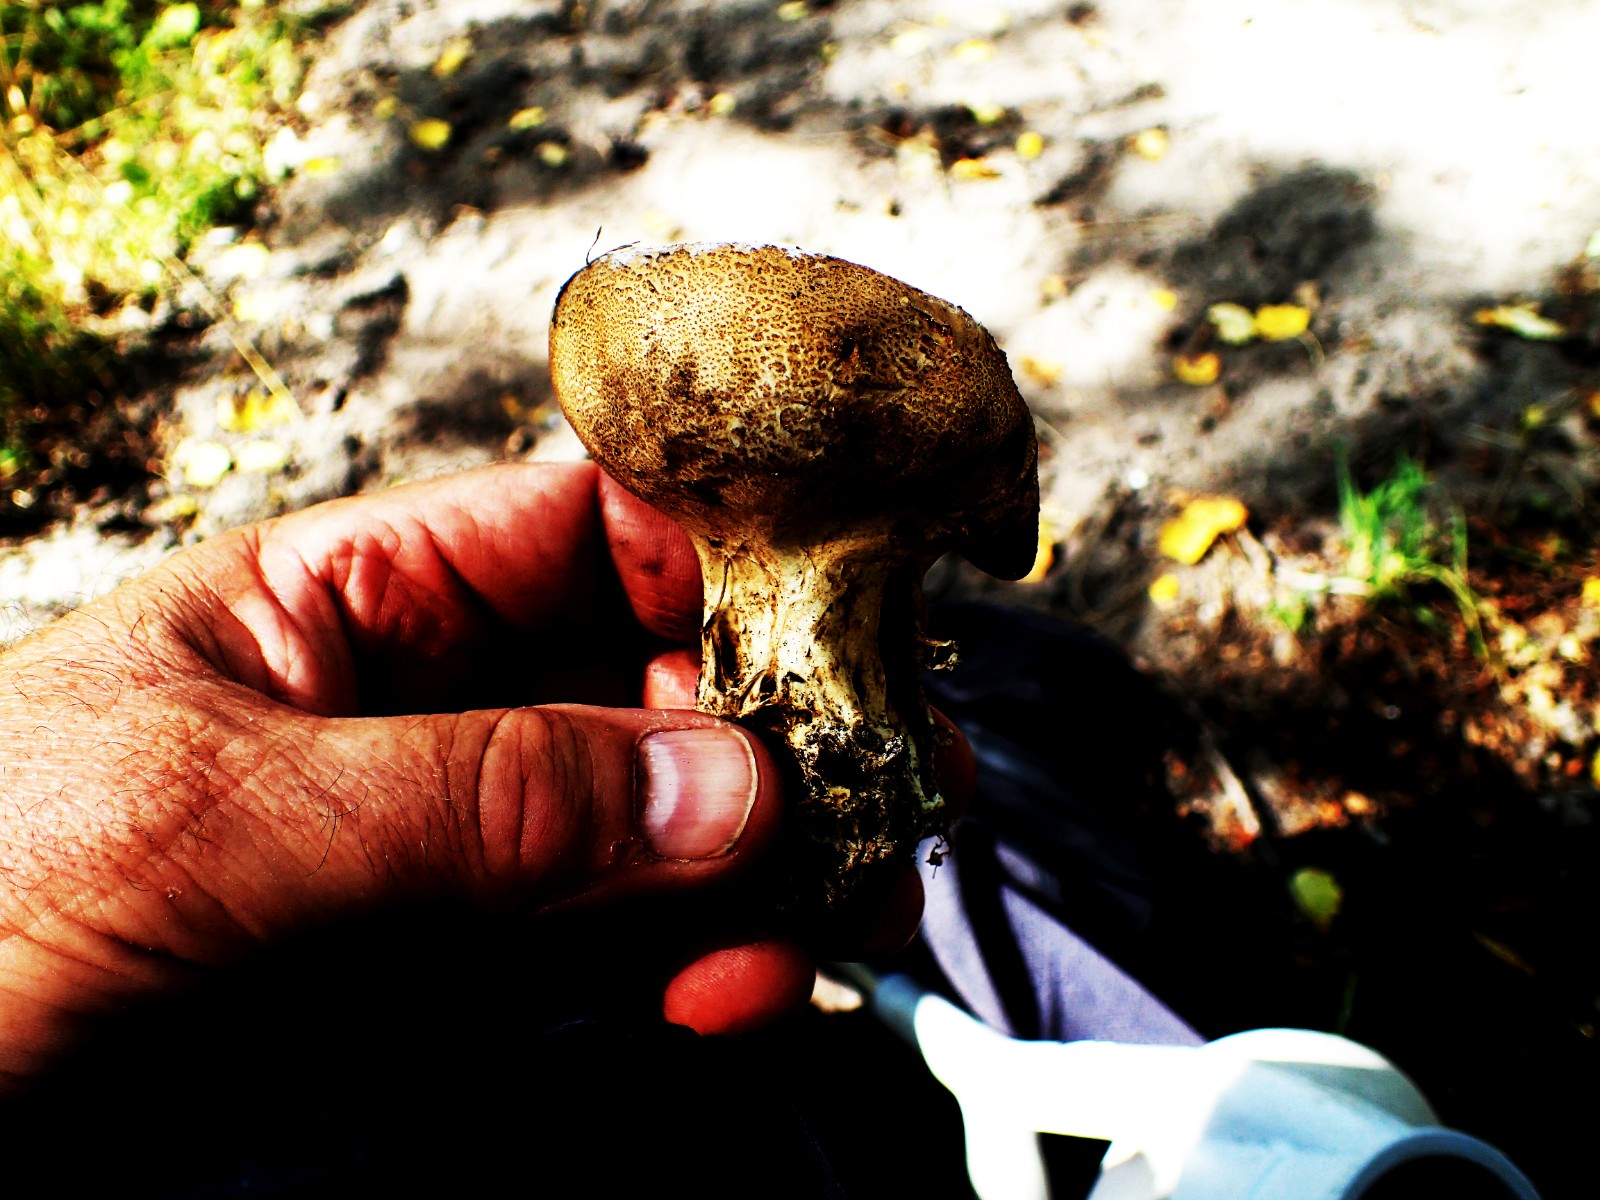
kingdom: Fungi
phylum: Basidiomycota
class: Agaricomycetes
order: Boletales
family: Sclerodermataceae
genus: Scleroderma
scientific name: Scleroderma verrucosum
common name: stilket bruskbold
